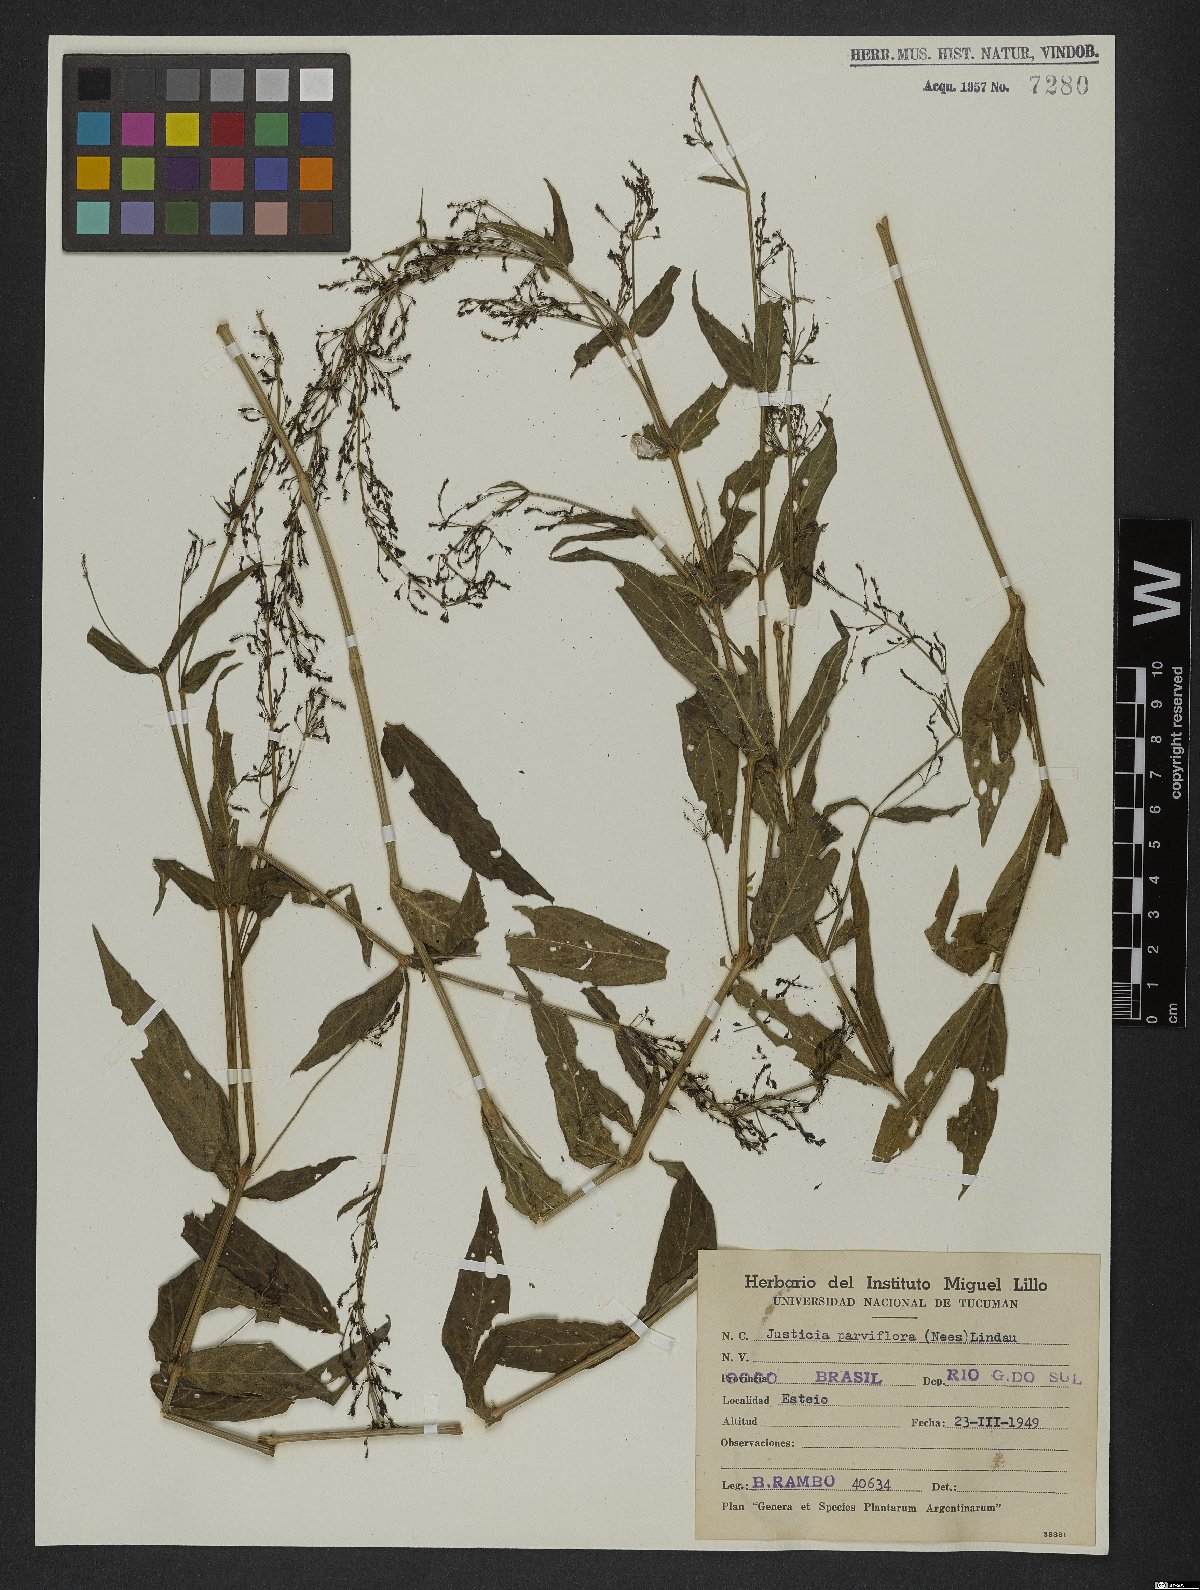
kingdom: Plantae
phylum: Tracheophyta
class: Magnoliopsida
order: Lamiales
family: Acanthaceae
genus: Rungia
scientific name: Rungia parviflora
